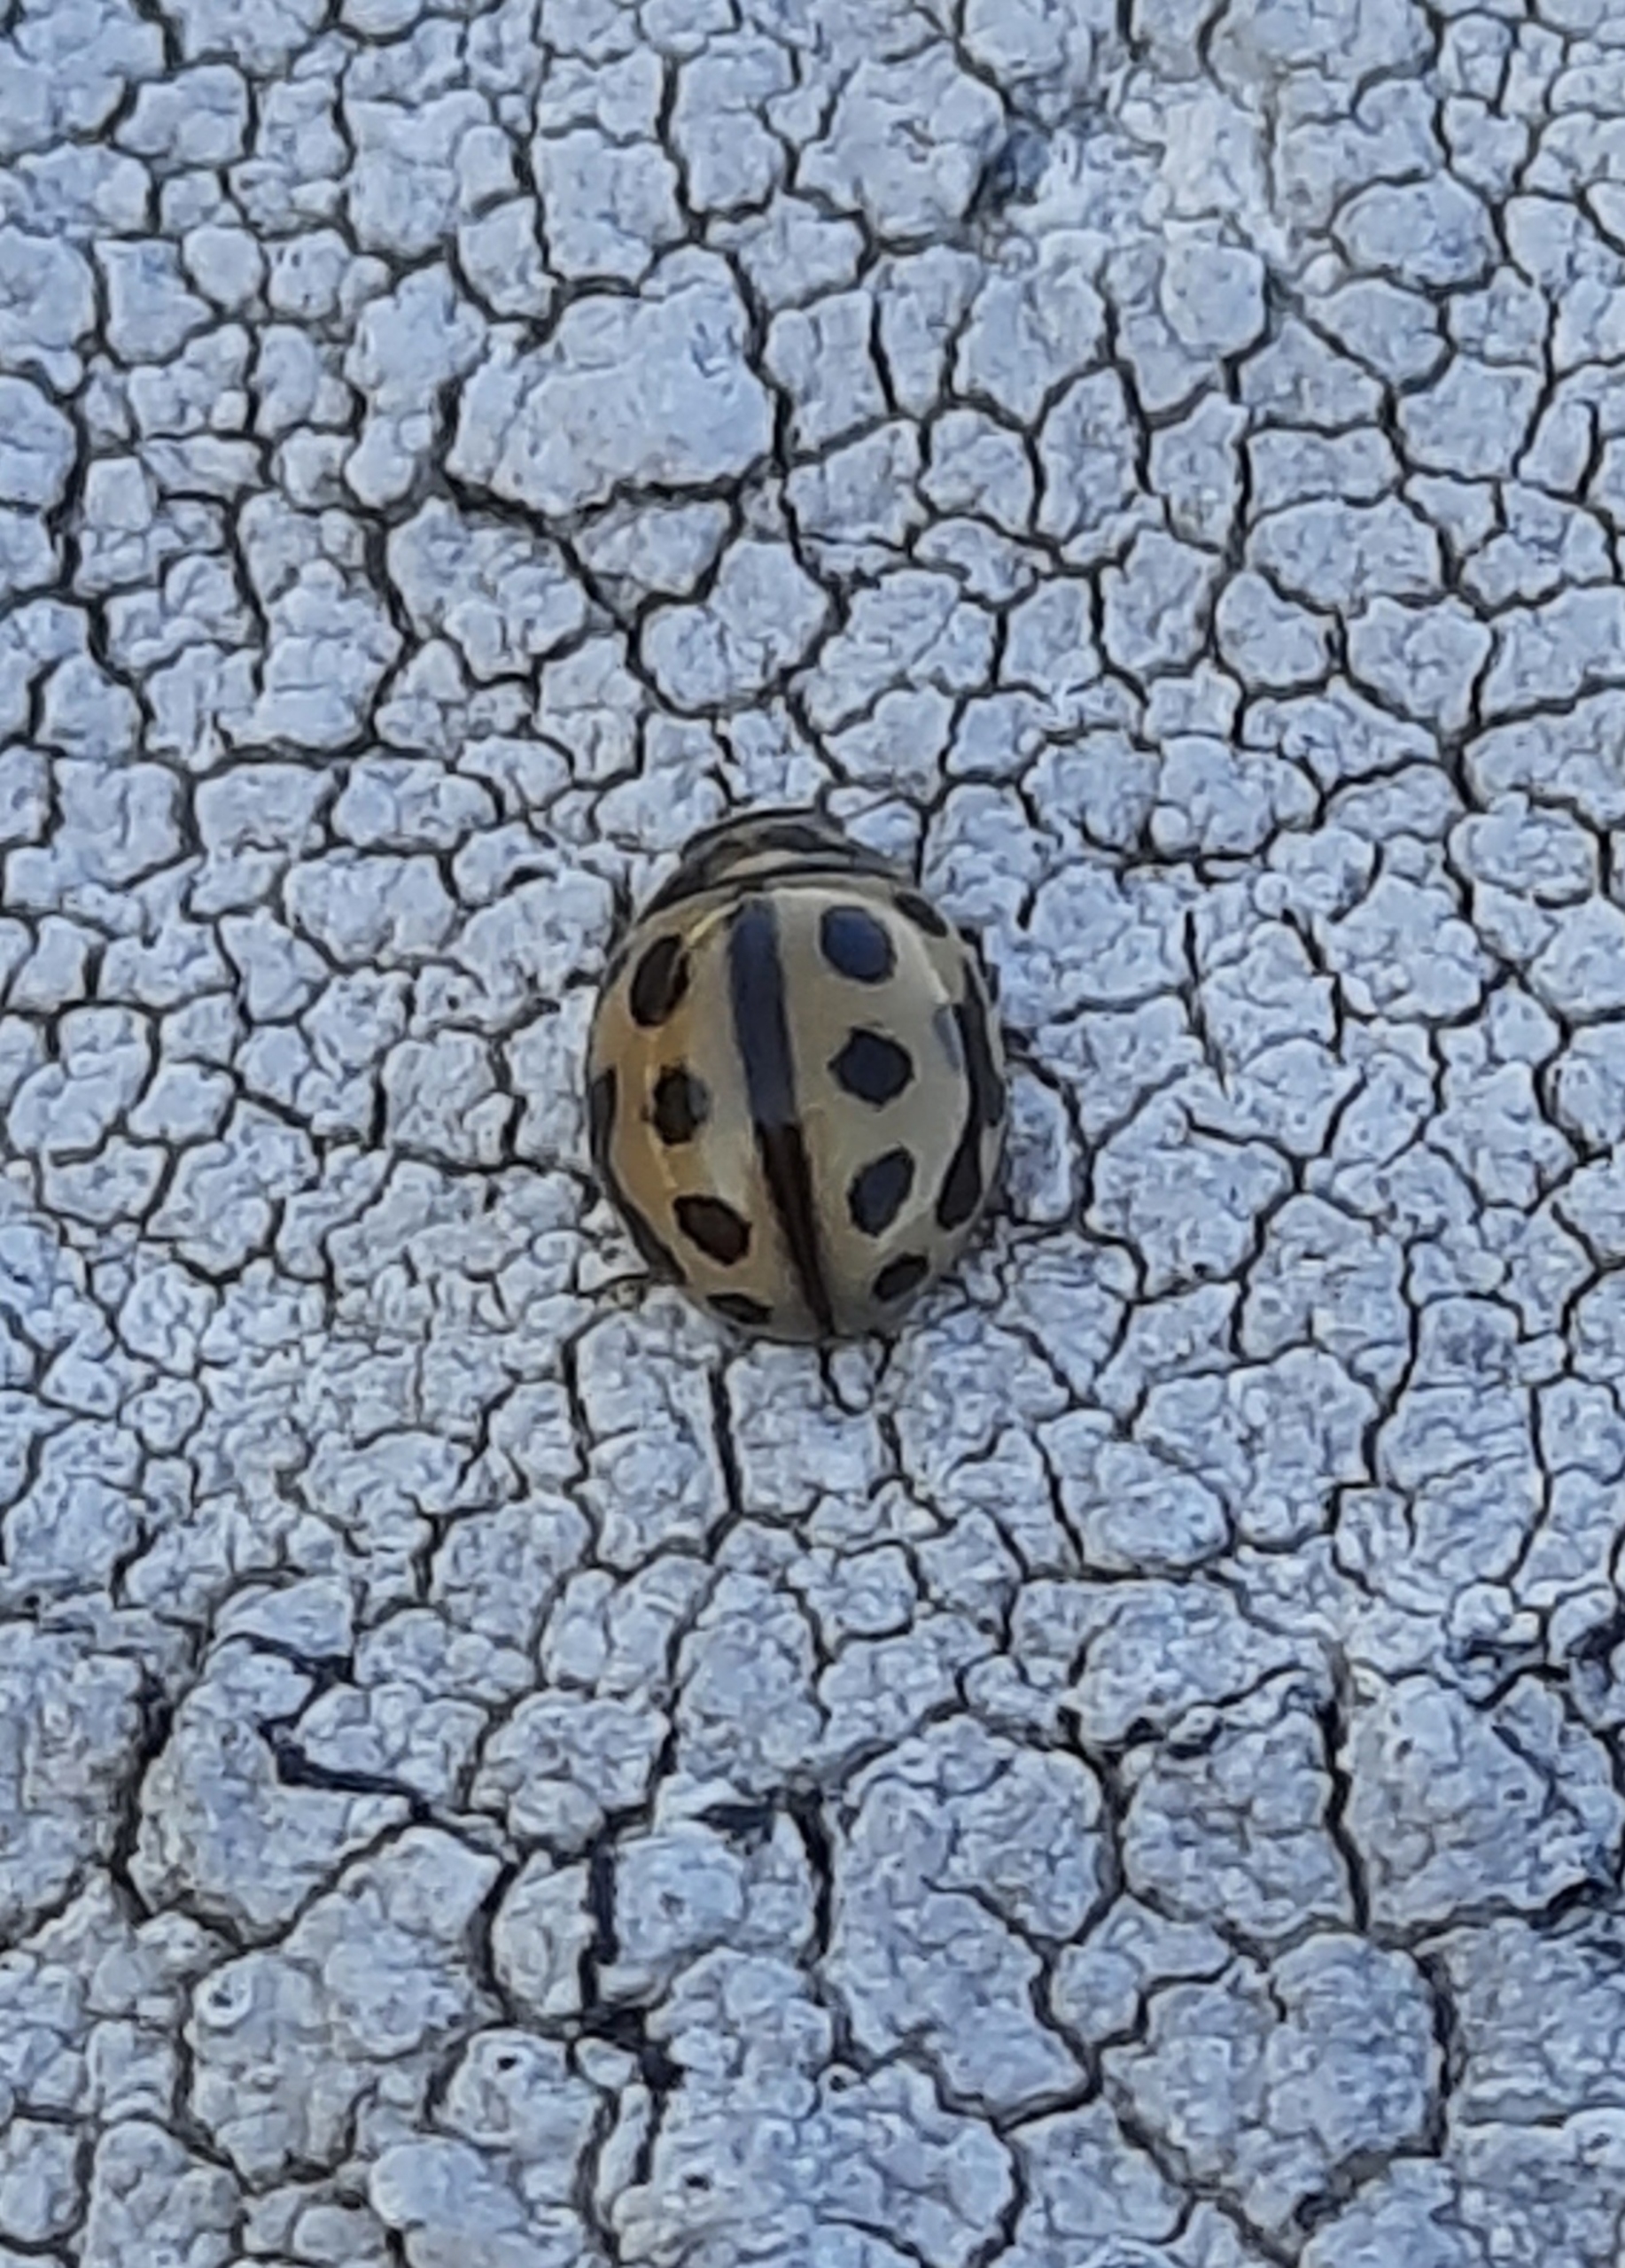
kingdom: Animalia
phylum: Arthropoda
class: Insecta
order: Coleoptera
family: Coccinellidae
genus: Tytthaspis
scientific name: Tytthaspis sedecimpunctata
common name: Sekstenprikket mariehøne
